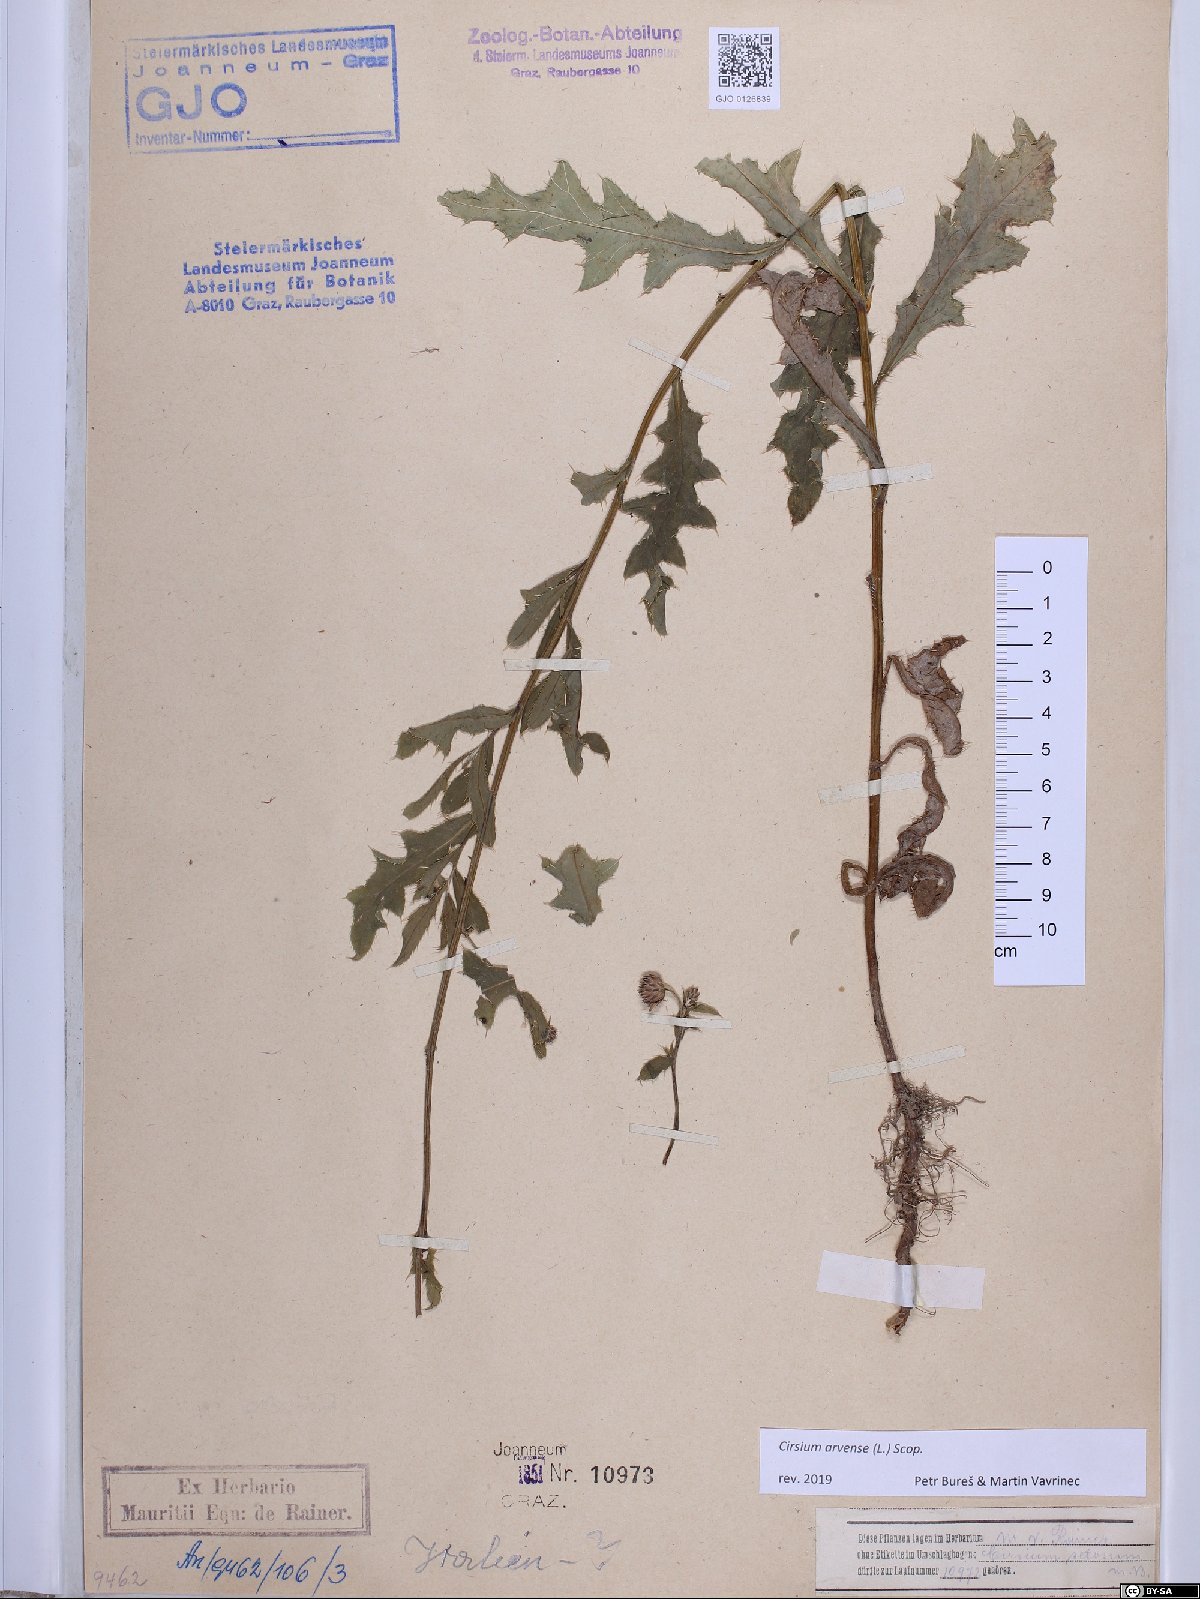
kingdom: Plantae
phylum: Tracheophyta
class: Magnoliopsida
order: Asterales
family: Asteraceae
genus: Cirsium
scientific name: Cirsium arvense
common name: Creeping thistle
